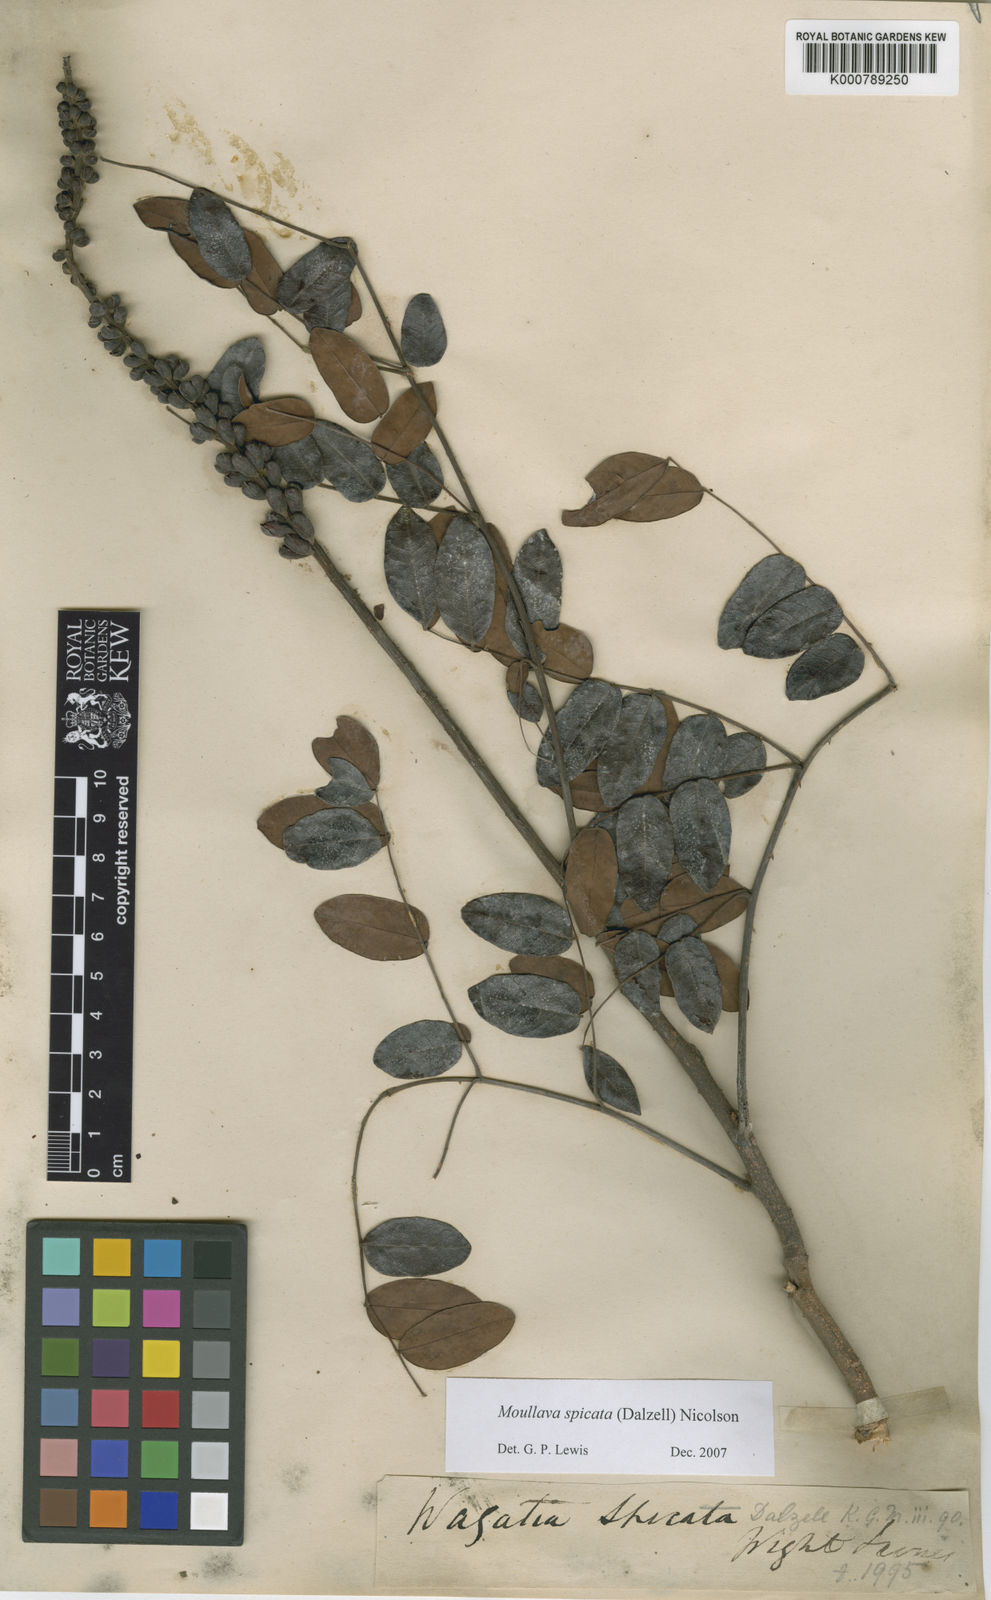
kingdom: Plantae
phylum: Tracheophyta
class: Magnoliopsida
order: Fabales
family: Fabaceae
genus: Moullava
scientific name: Moullava spicata
